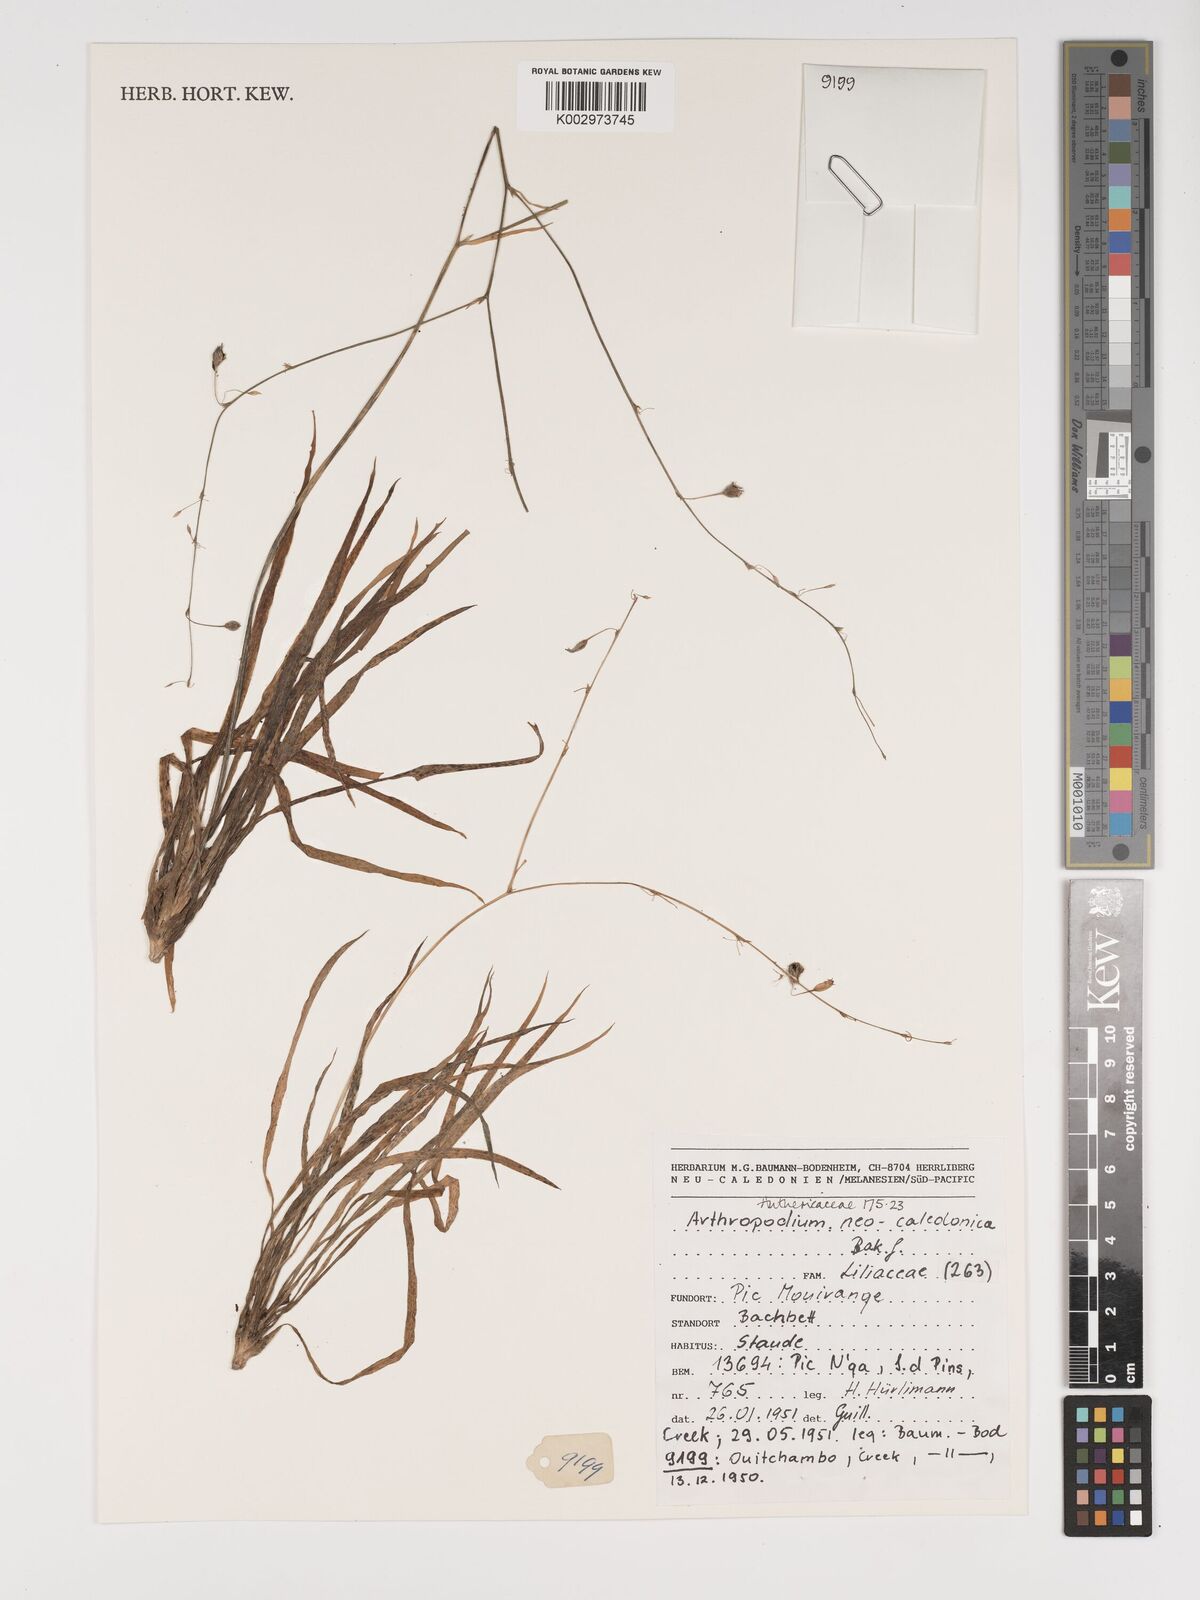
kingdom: Plantae
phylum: Tracheophyta
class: Liliopsida
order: Asparagales
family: Asparagaceae
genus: Arthropodium
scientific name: Arthropodium neocaledonicum
